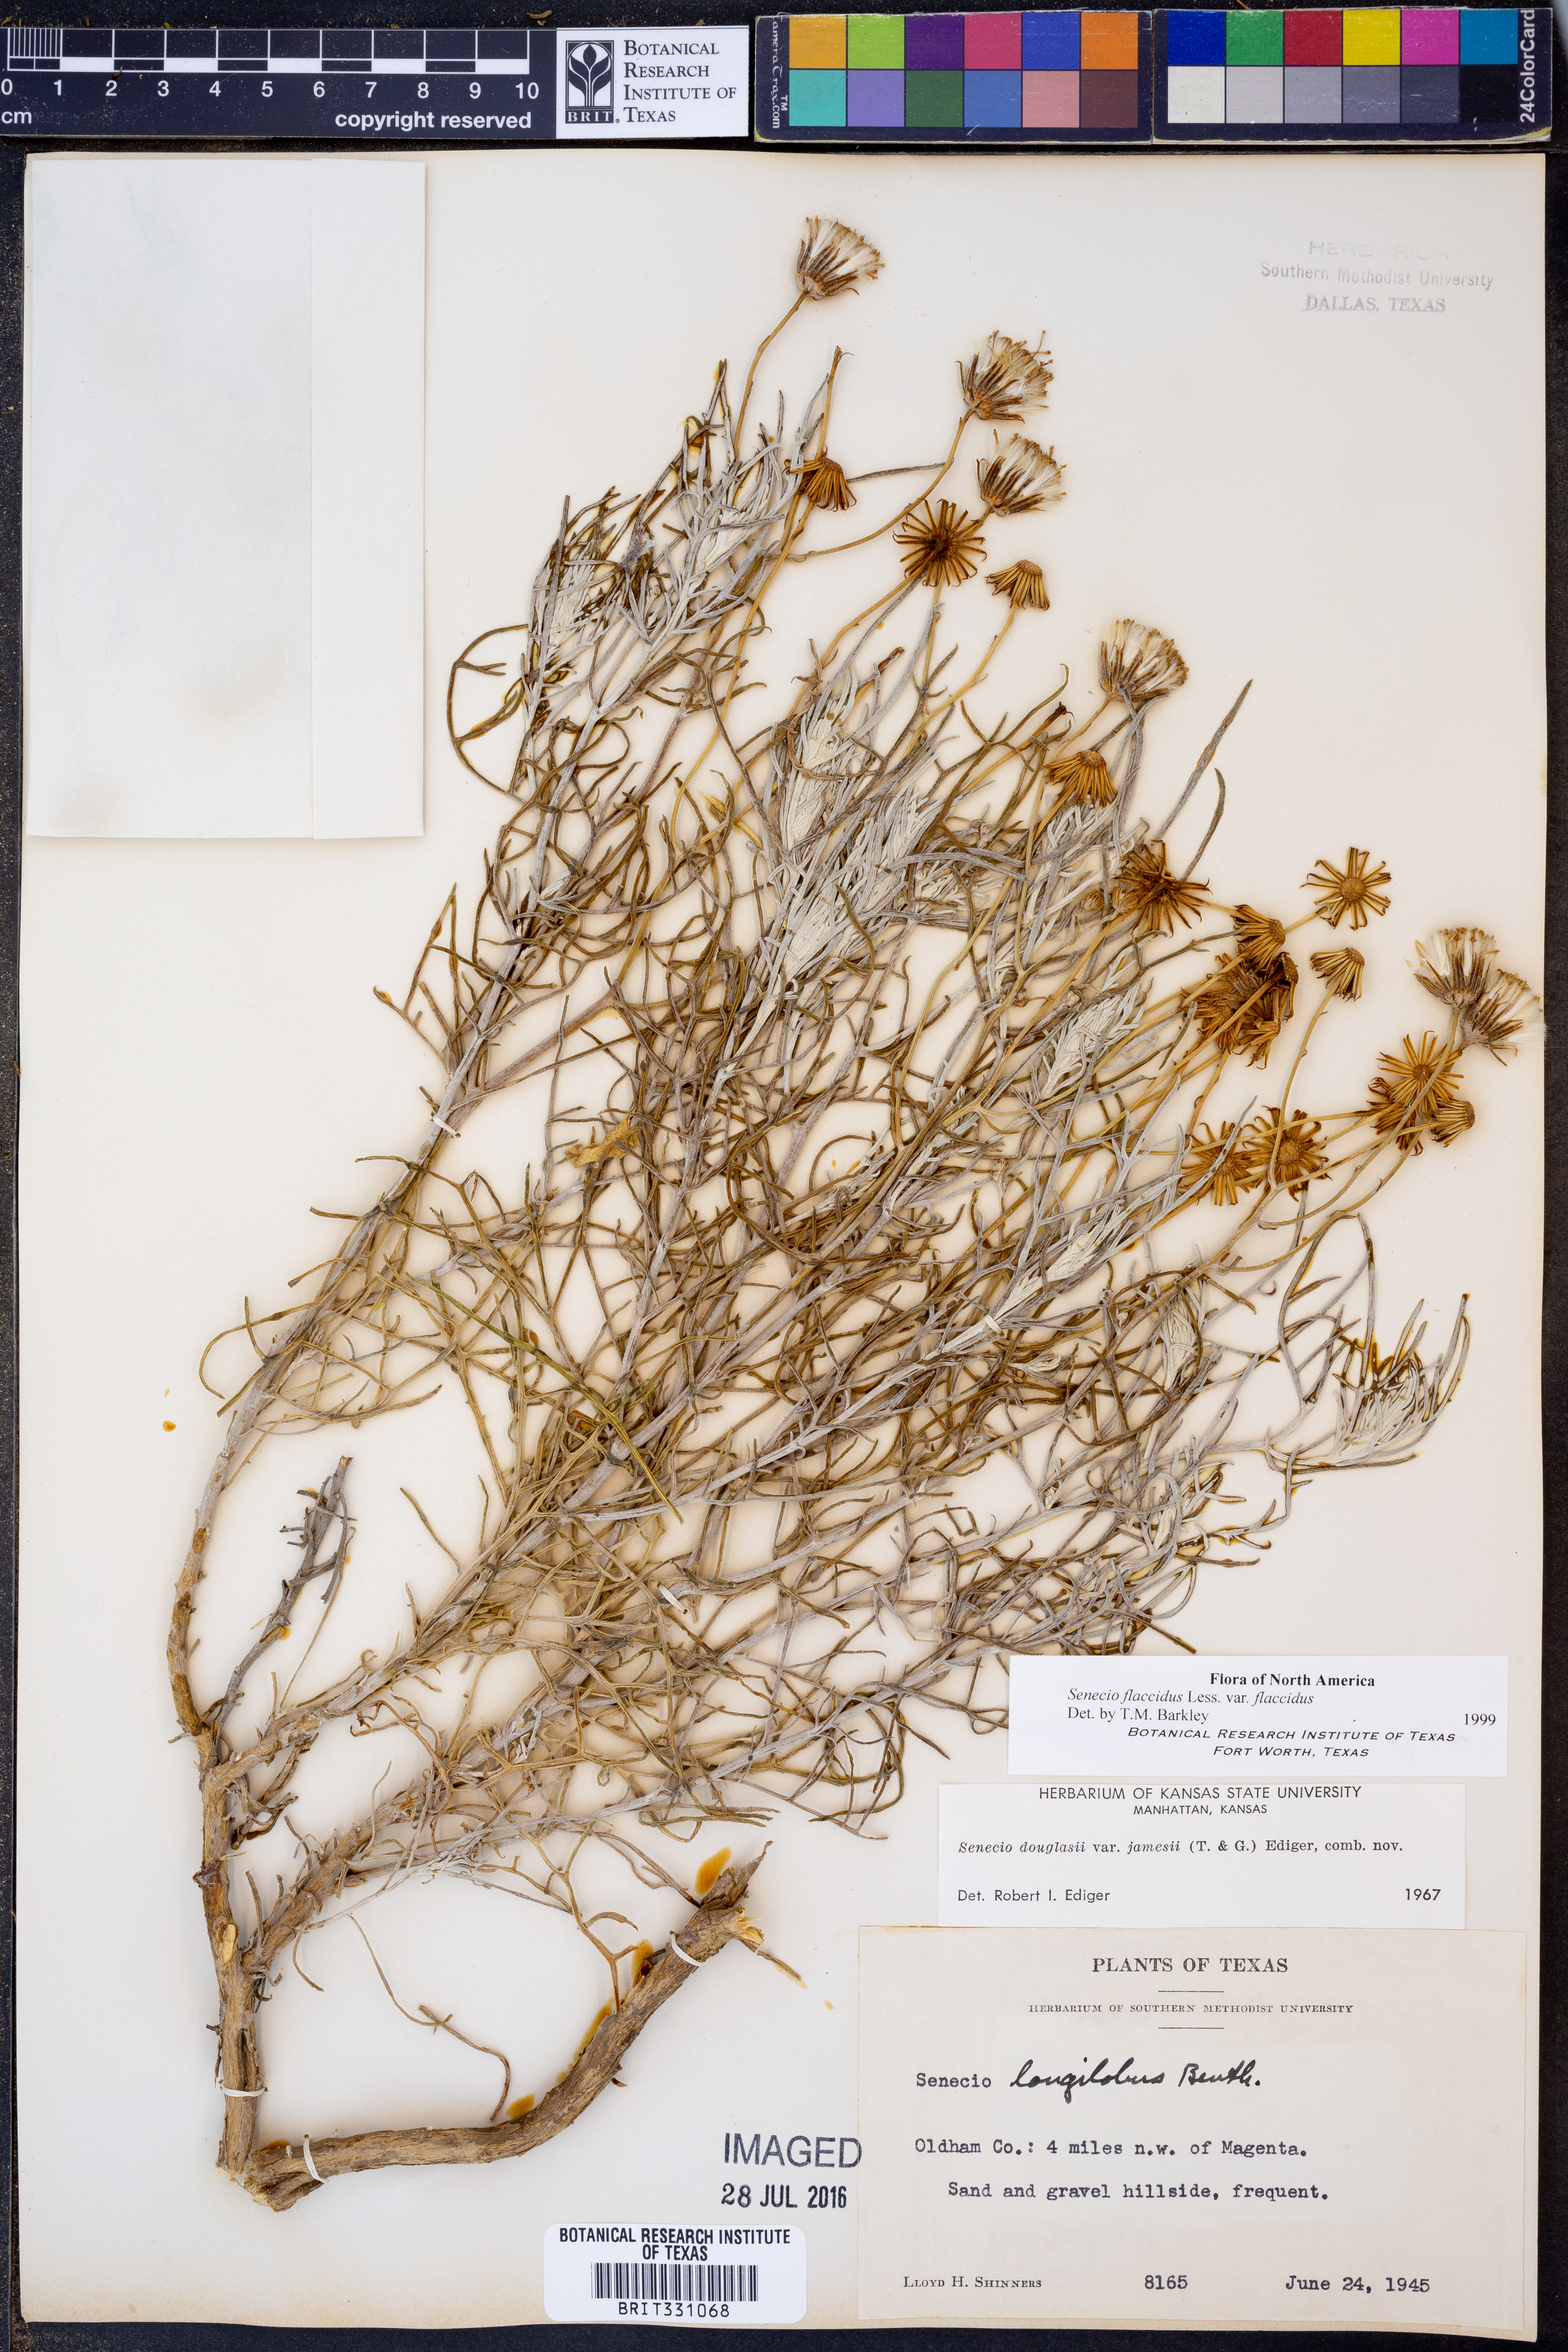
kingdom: Plantae
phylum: Tracheophyta
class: Magnoliopsida
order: Asterales
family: Asteraceae
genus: Senecio
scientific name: Senecio flaccidus
